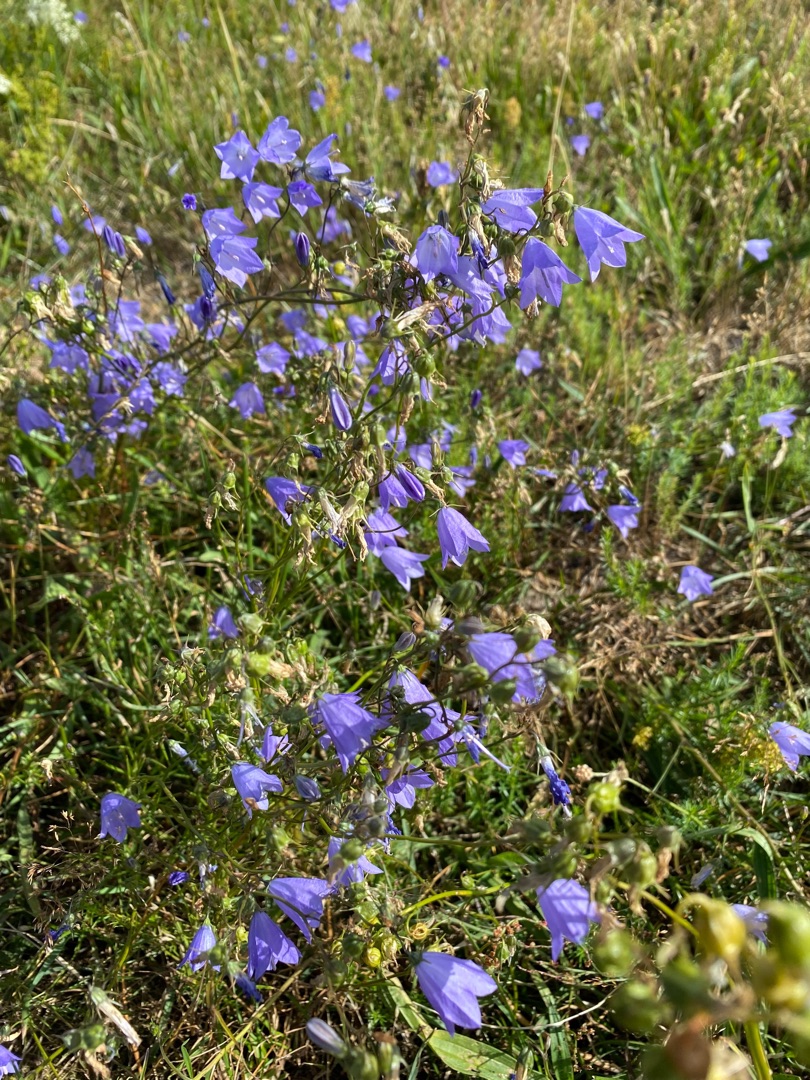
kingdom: Plantae
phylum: Tracheophyta
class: Magnoliopsida
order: Asterales
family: Campanulaceae
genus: Campanula
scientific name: Campanula rotundifolia
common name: Liden klokke
